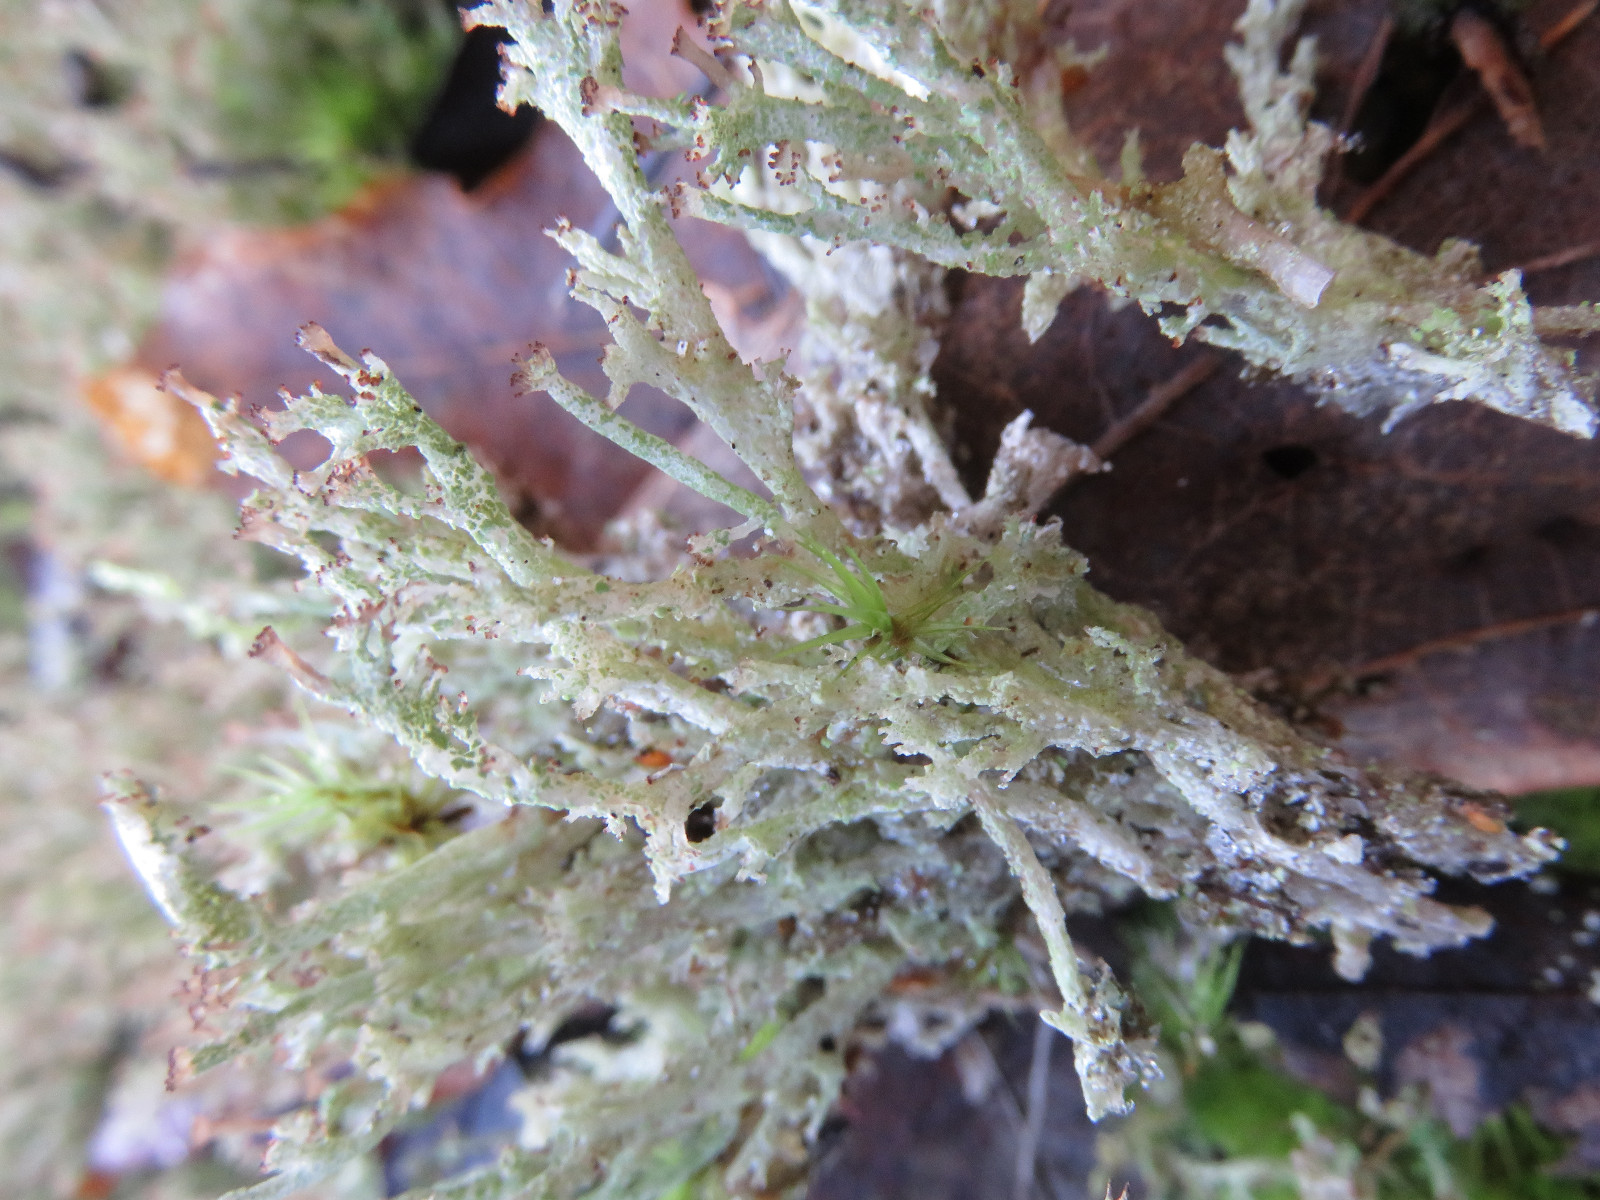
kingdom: Fungi
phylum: Ascomycota
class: Lecanoromycetes
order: Lecanorales
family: Cladoniaceae
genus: Cladonia
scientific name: Cladonia ramulosa
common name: kliddet bægerlav
